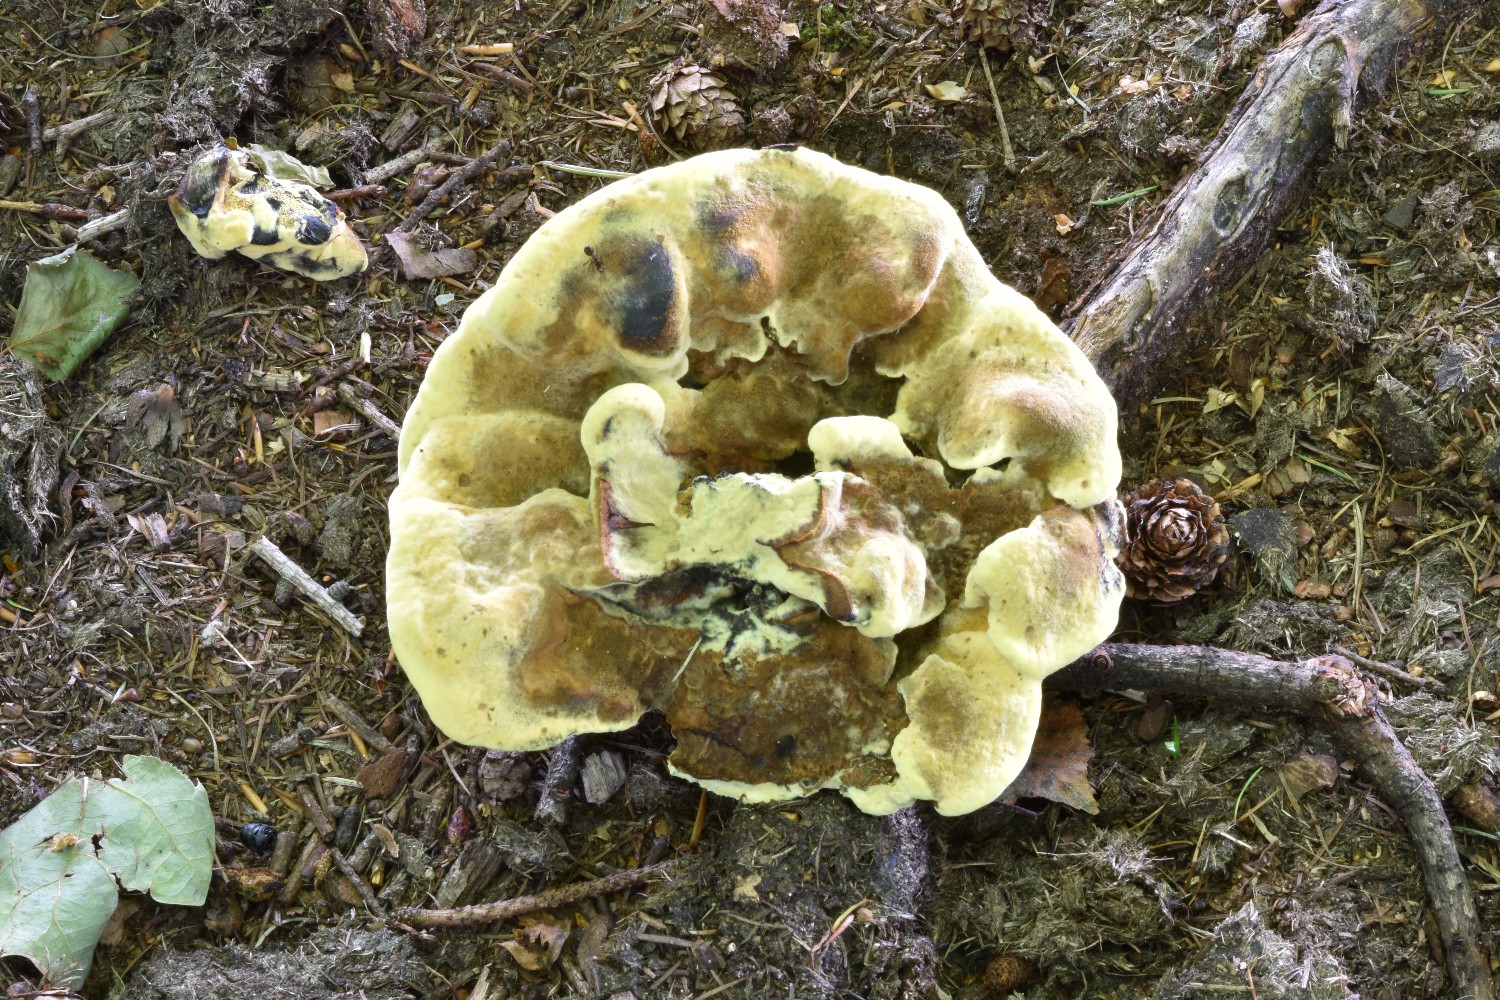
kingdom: Fungi
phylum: Basidiomycota
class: Agaricomycetes
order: Polyporales
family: Laetiporaceae
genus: Phaeolus
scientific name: Phaeolus schweinitzii
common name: brunporesvamp
